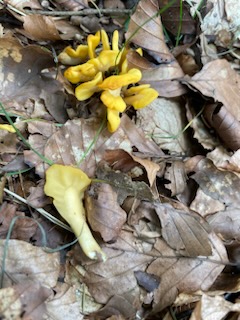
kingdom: Fungi
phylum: Ascomycota
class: Leotiomycetes
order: Rhytismatales
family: Cudoniaceae
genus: Spathularia
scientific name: Spathularia flavida
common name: gul spatelsvamp
